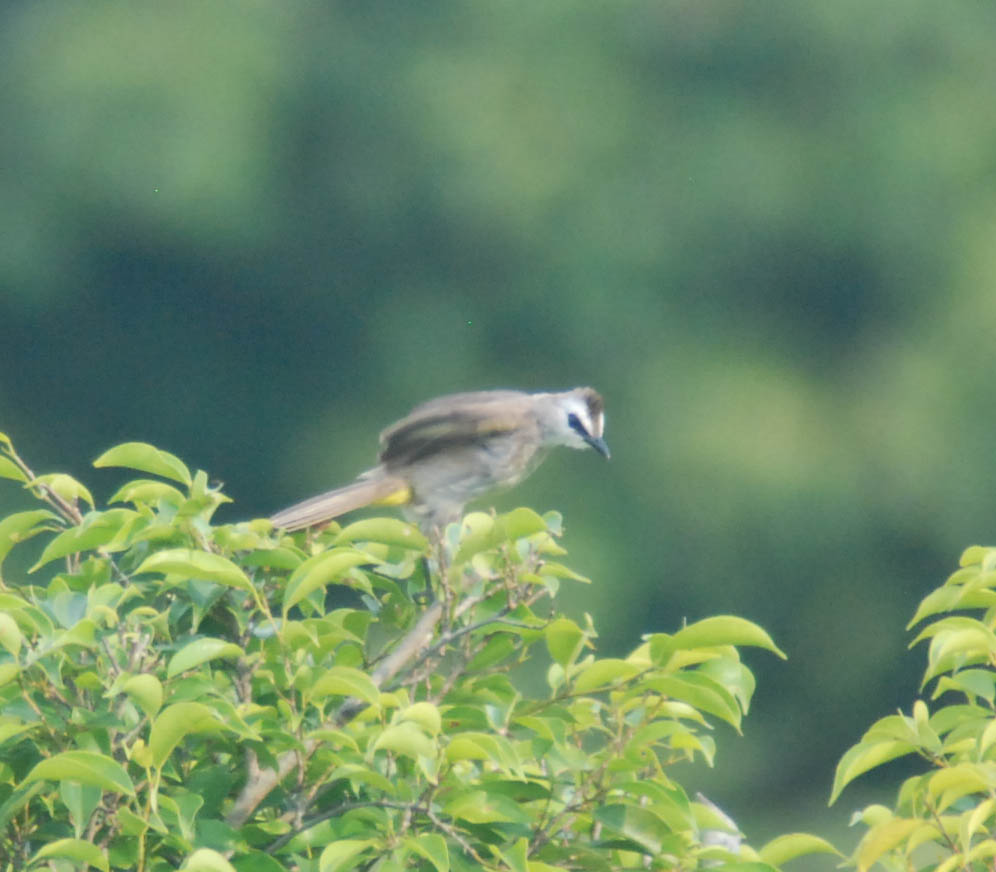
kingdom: Animalia
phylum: Chordata
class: Aves
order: Passeriformes
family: Pycnonotidae
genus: Pycnonotus
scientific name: Pycnonotus goiavier
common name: Yellow-vented bulbul
